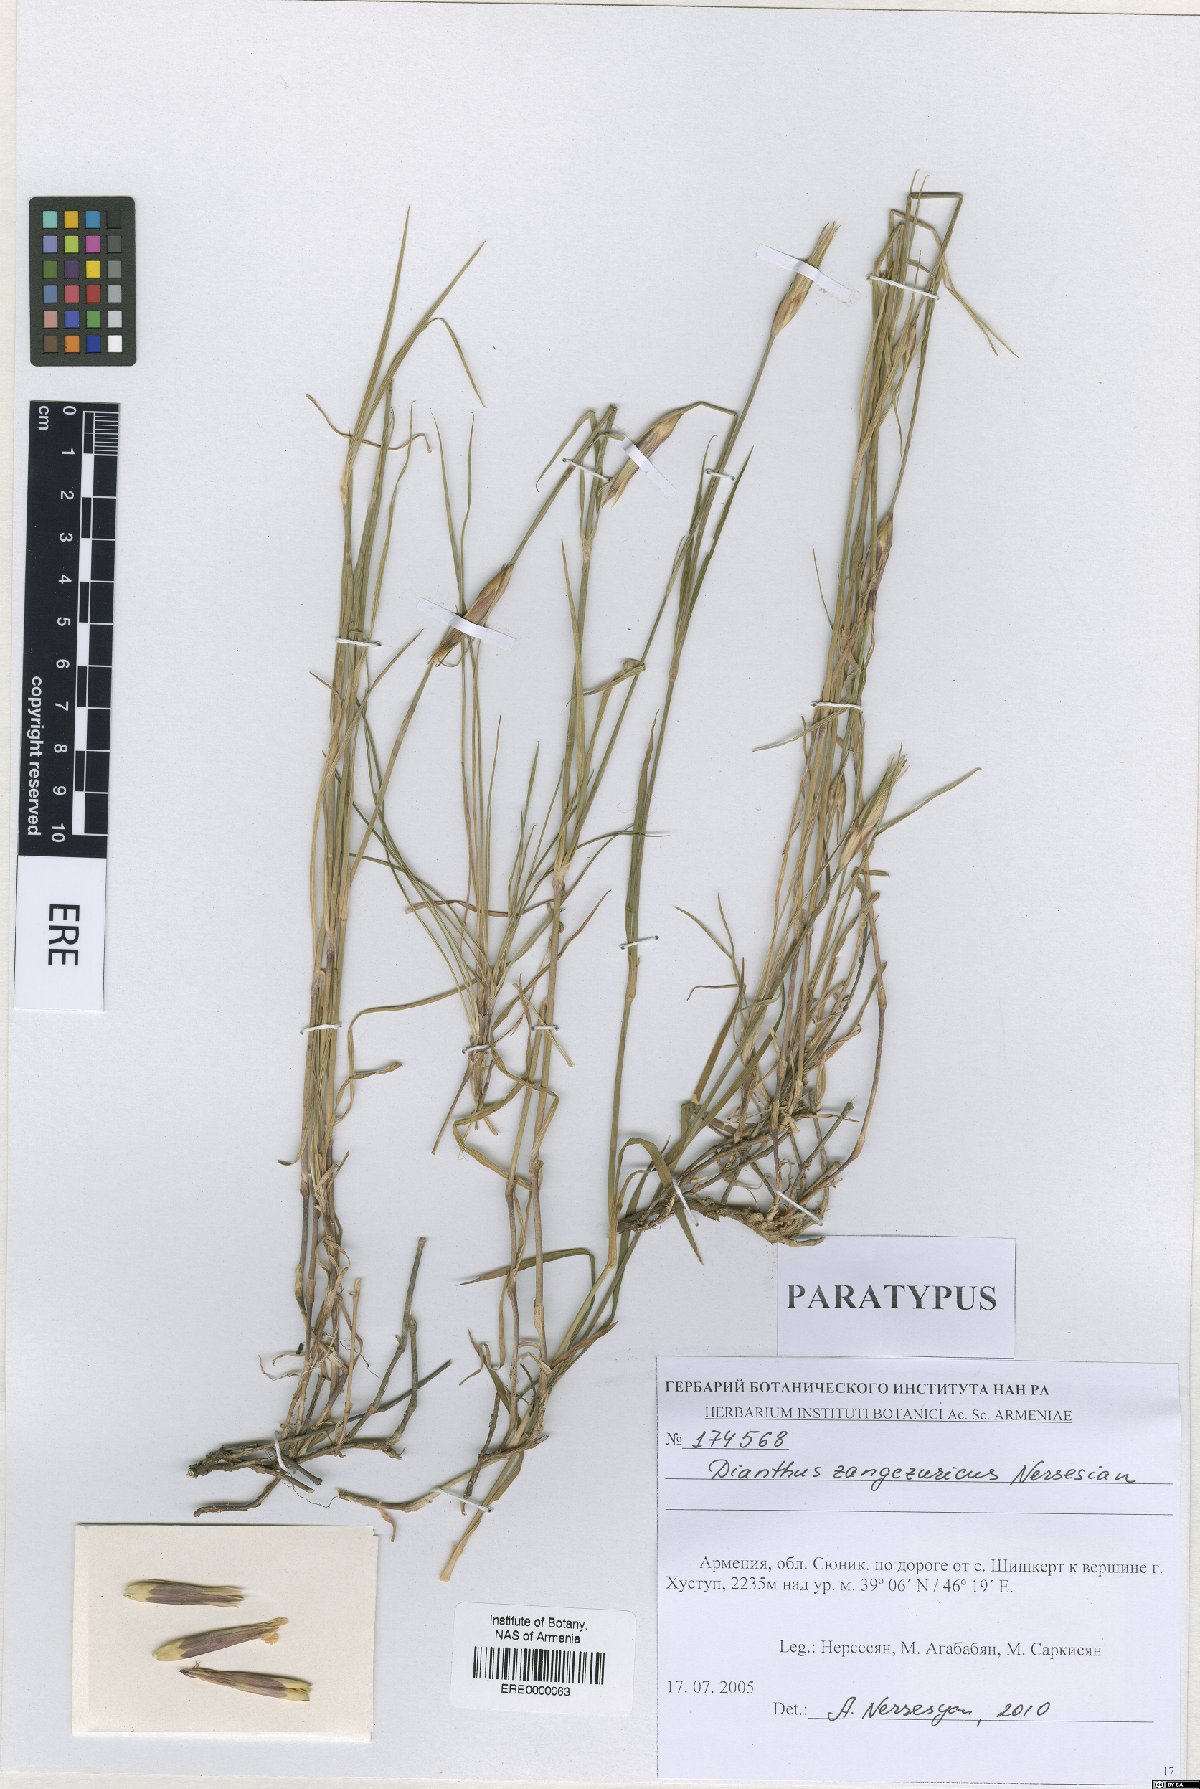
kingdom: Plantae
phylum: Tracheophyta
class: Magnoliopsida
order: Caryophyllales
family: Caryophyllaceae
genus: Dianthus
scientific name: Dianthus zangezuricus
